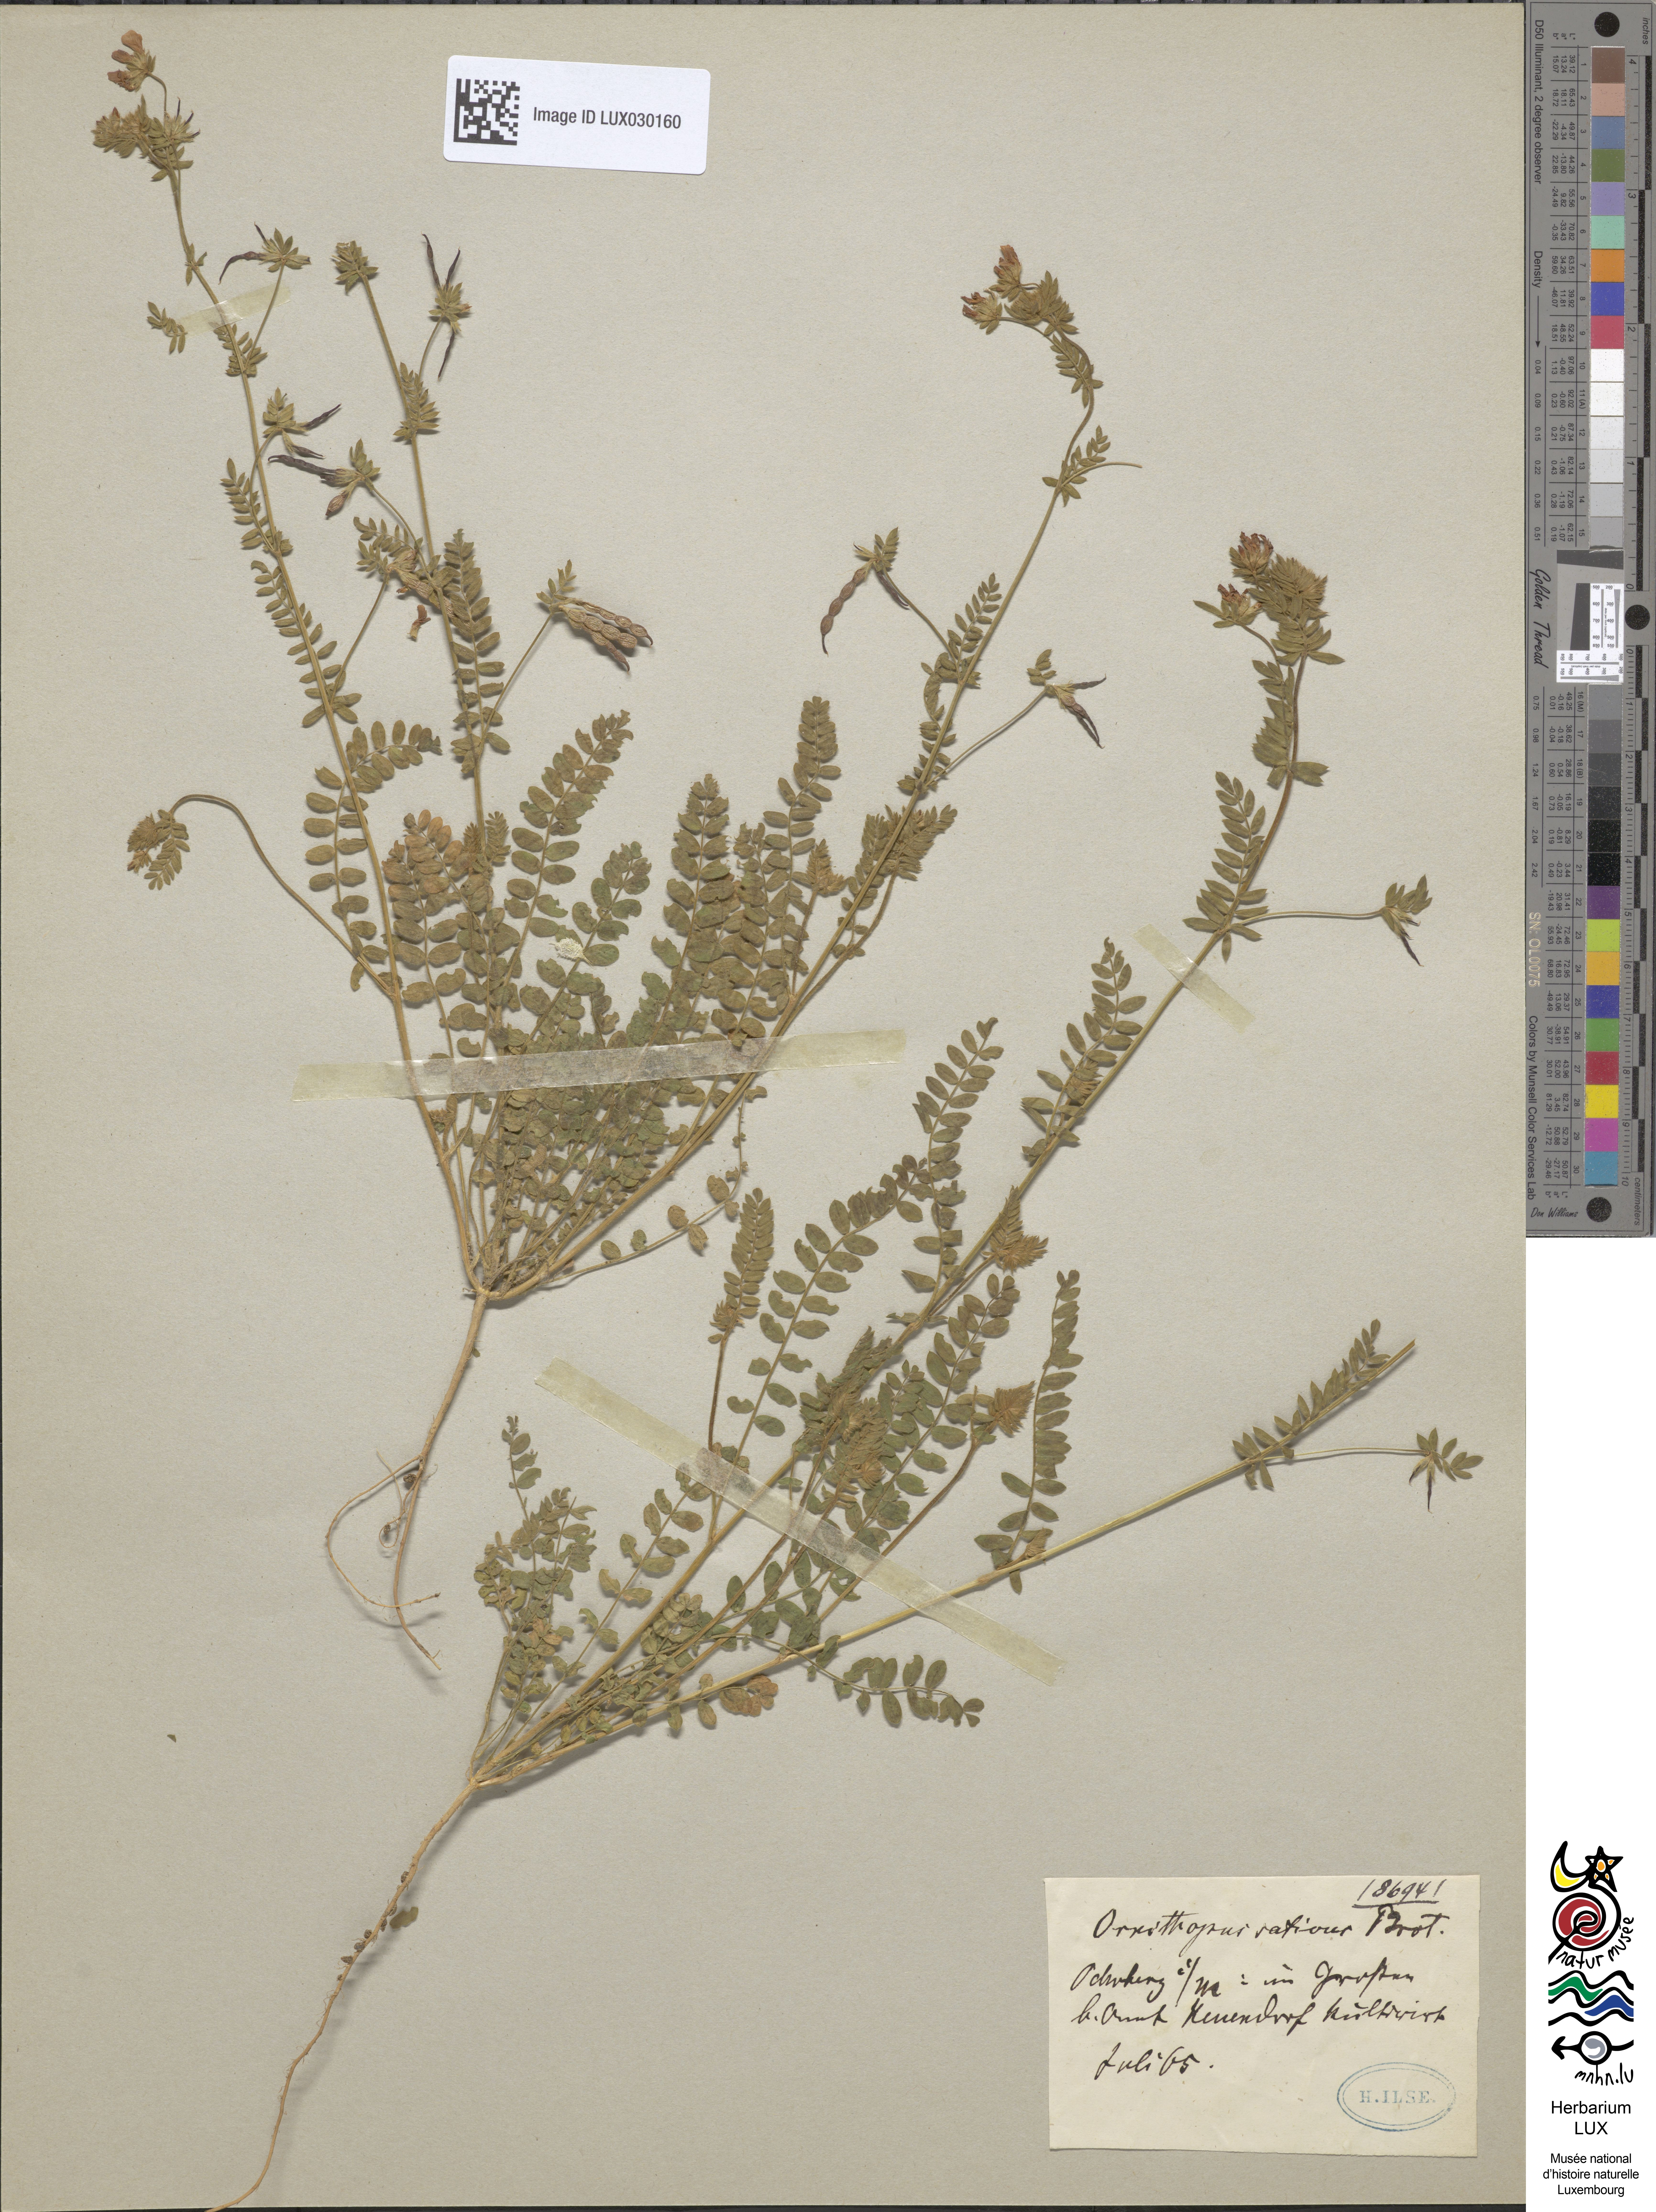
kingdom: Plantae
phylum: Tracheophyta
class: Magnoliopsida
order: Fabales
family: Fabaceae
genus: Ornithopus
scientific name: Ornithopus sativus
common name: Serradella
